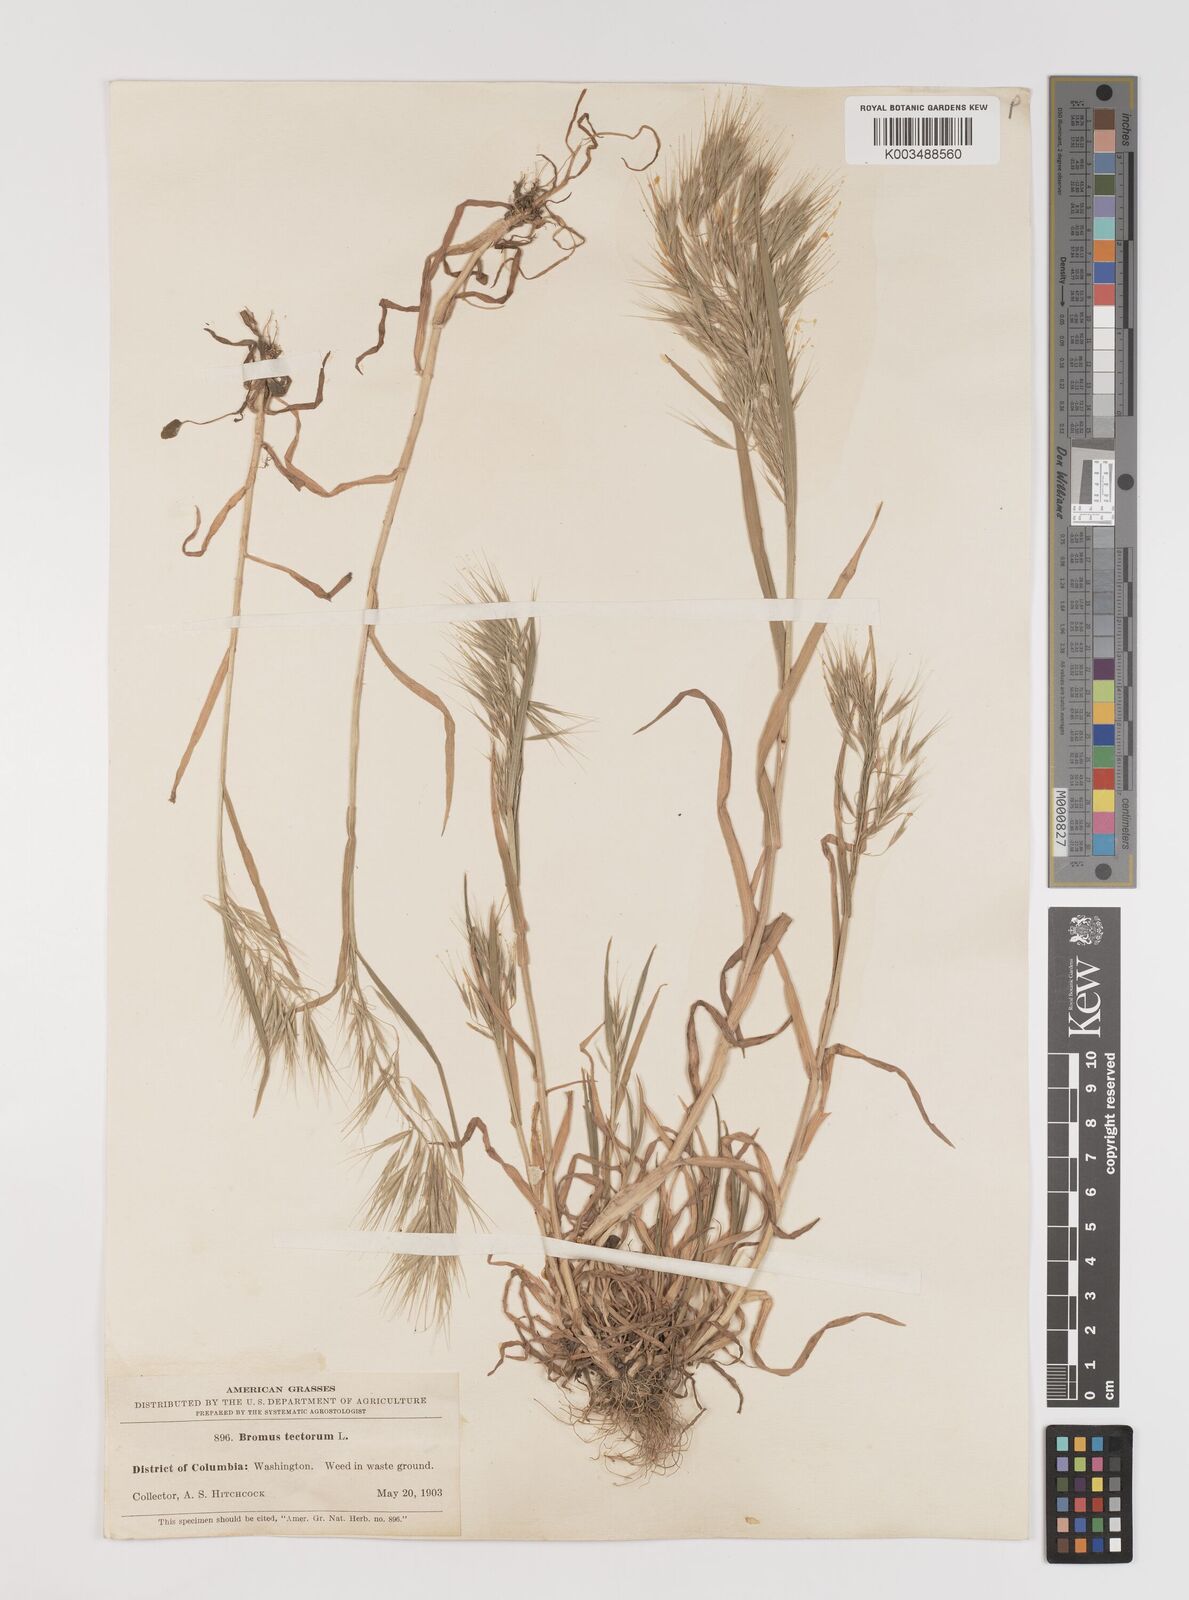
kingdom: Plantae
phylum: Tracheophyta
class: Liliopsida
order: Poales
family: Poaceae
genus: Bromus
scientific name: Bromus tectorum
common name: Cheatgrass
